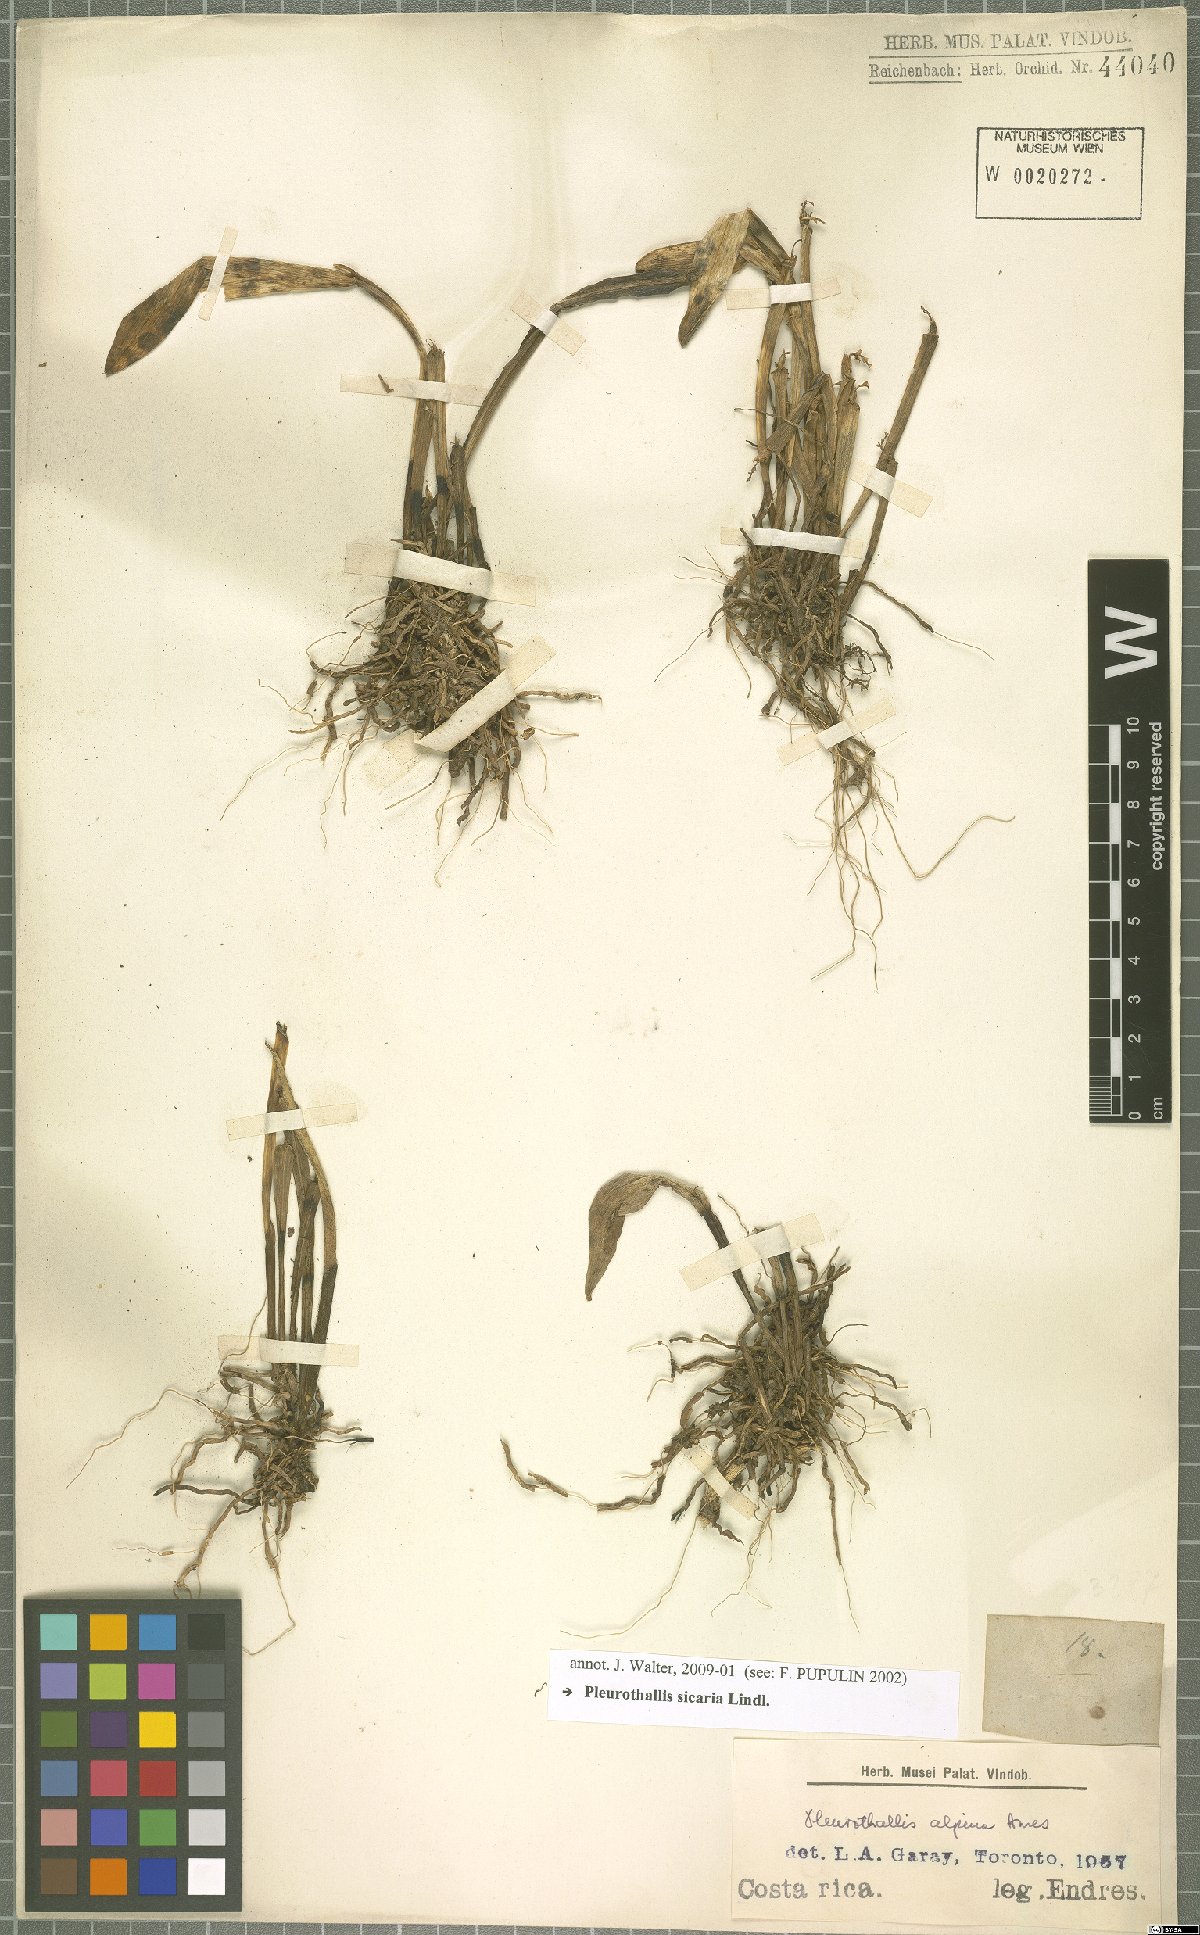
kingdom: Plantae
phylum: Tracheophyta
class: Liliopsida
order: Asparagales
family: Orchidaceae
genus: Acianthera
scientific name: Acianthera sicaria
